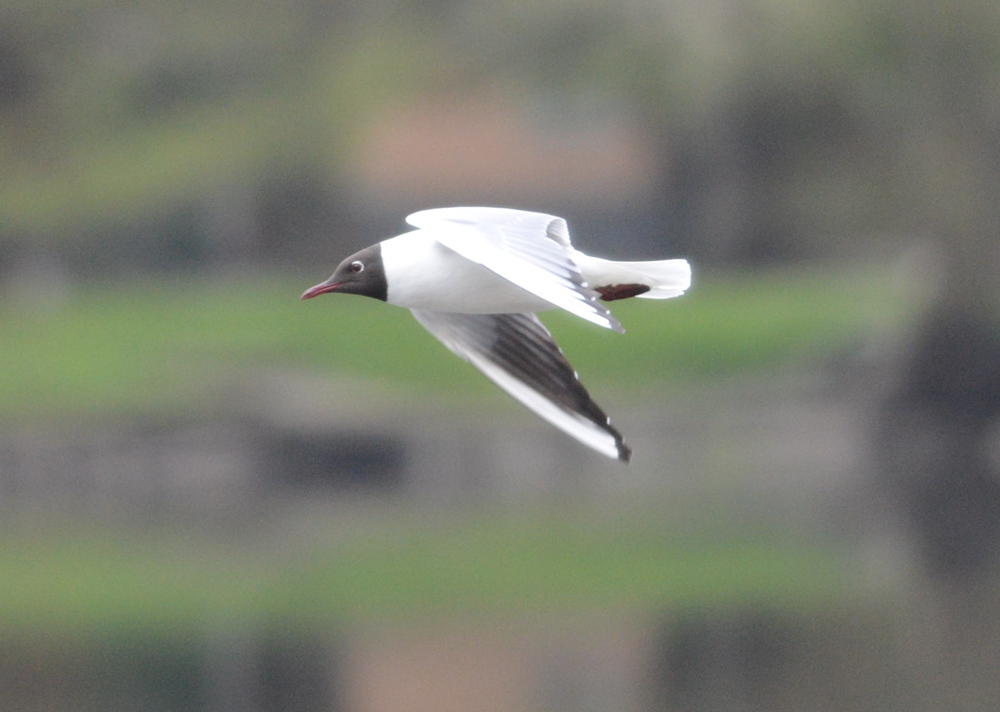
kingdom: Animalia
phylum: Chordata
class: Aves
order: Charadriiformes
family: Laridae
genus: Chroicocephalus
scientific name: Chroicocephalus ridibundus
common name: Black-headed gull
